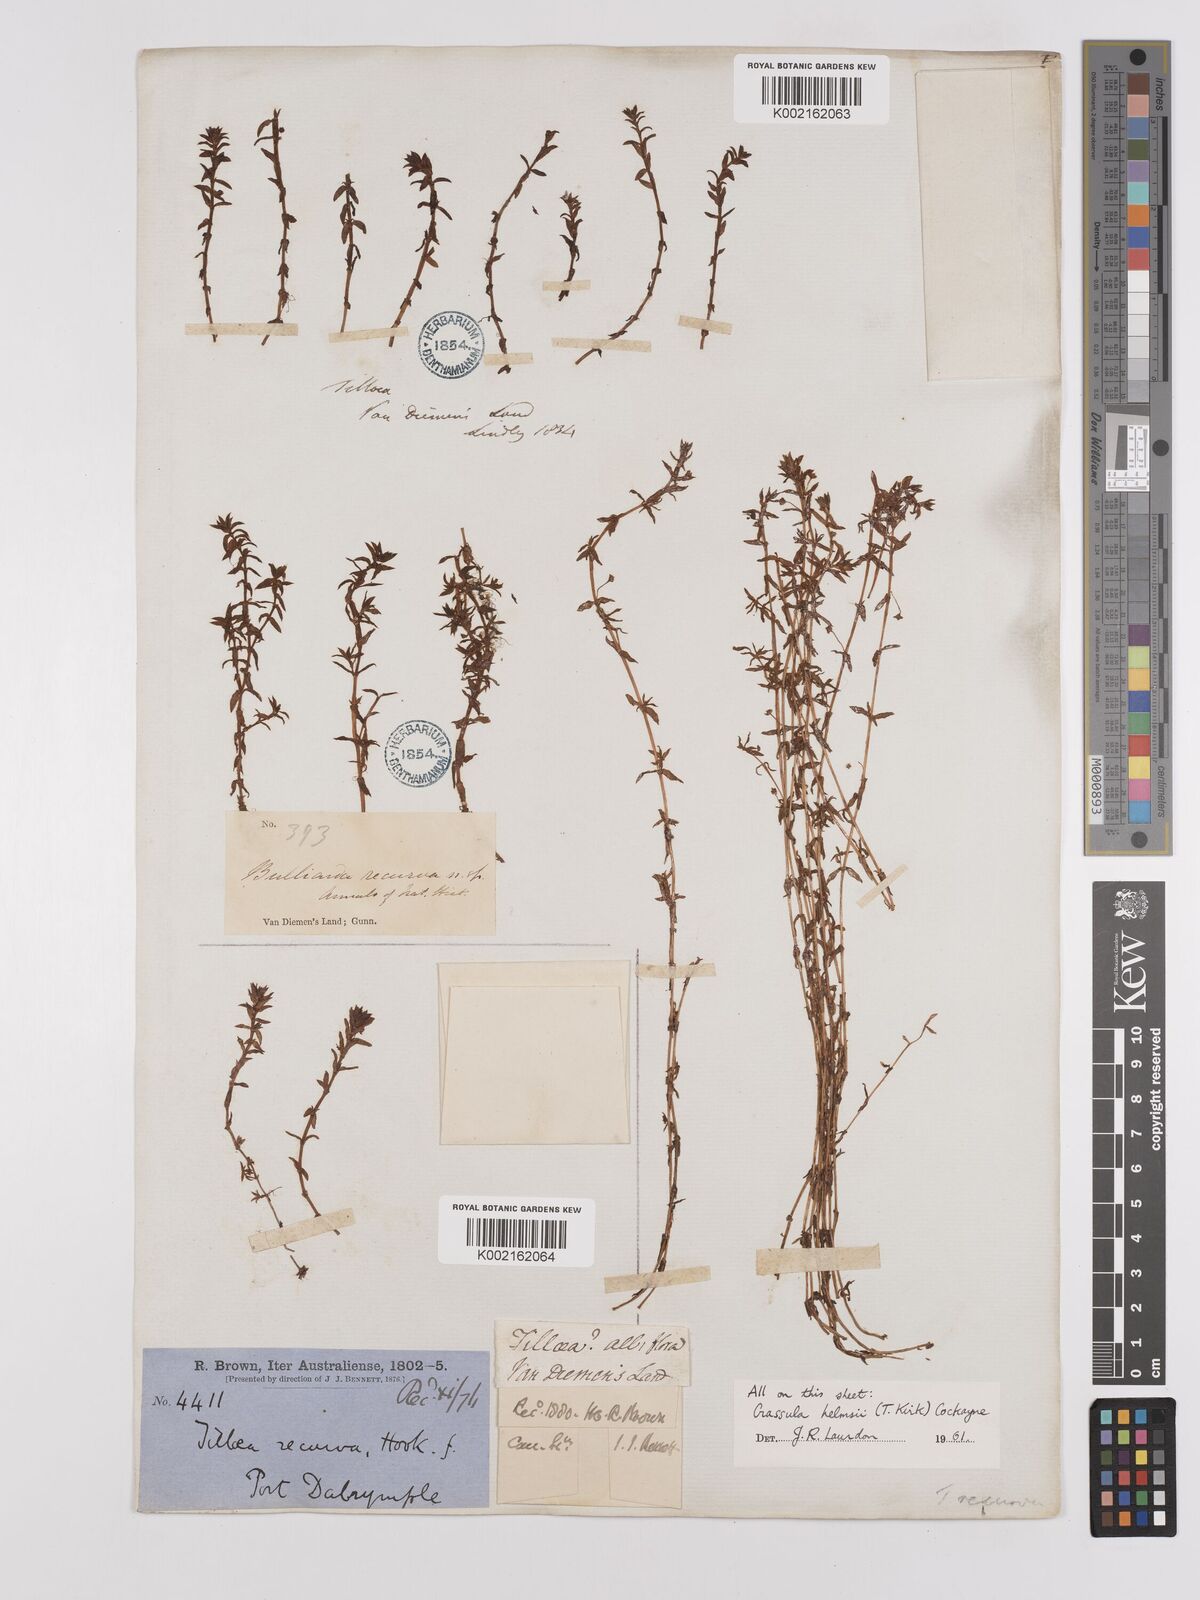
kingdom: Plantae
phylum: Tracheophyta
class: Magnoliopsida
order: Saxifragales
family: Crassulaceae
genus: Crassula
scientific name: Crassula helmsii
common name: New zealand pigmyweed
